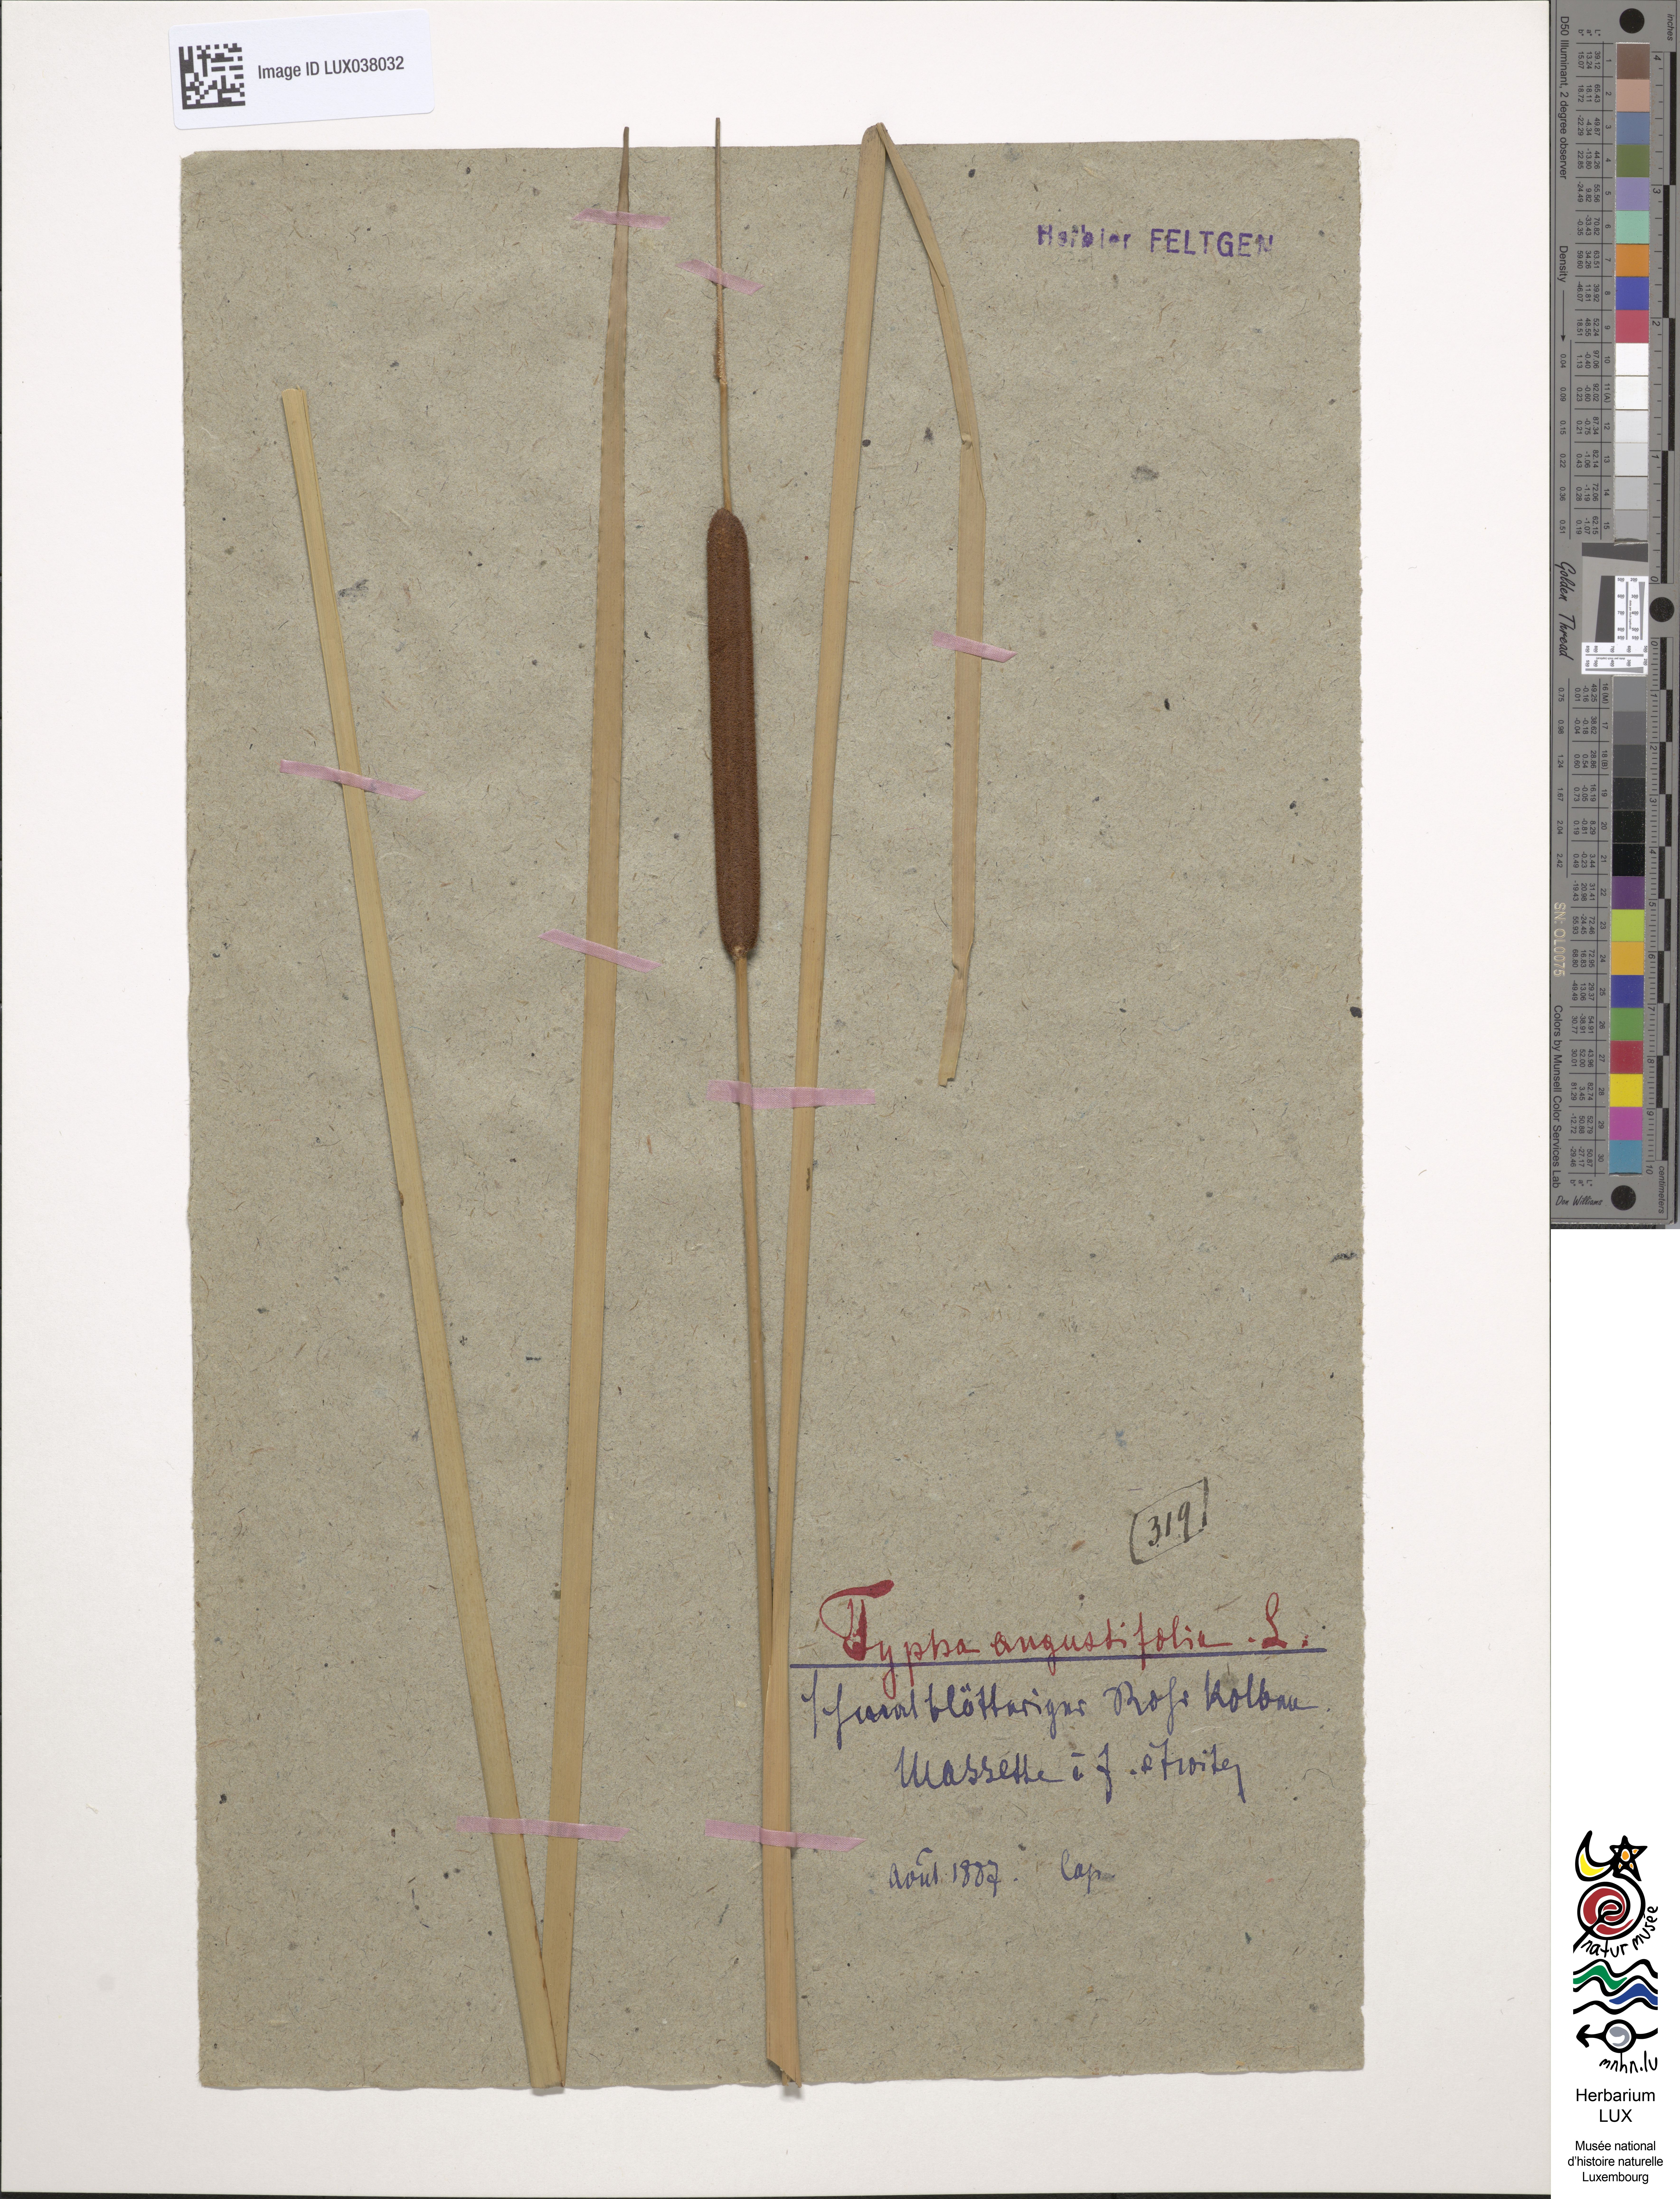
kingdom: Plantae
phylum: Tracheophyta
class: Liliopsida
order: Poales
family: Typhaceae
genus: Typha
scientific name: Typha angustifolia
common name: Lesser bulrush
